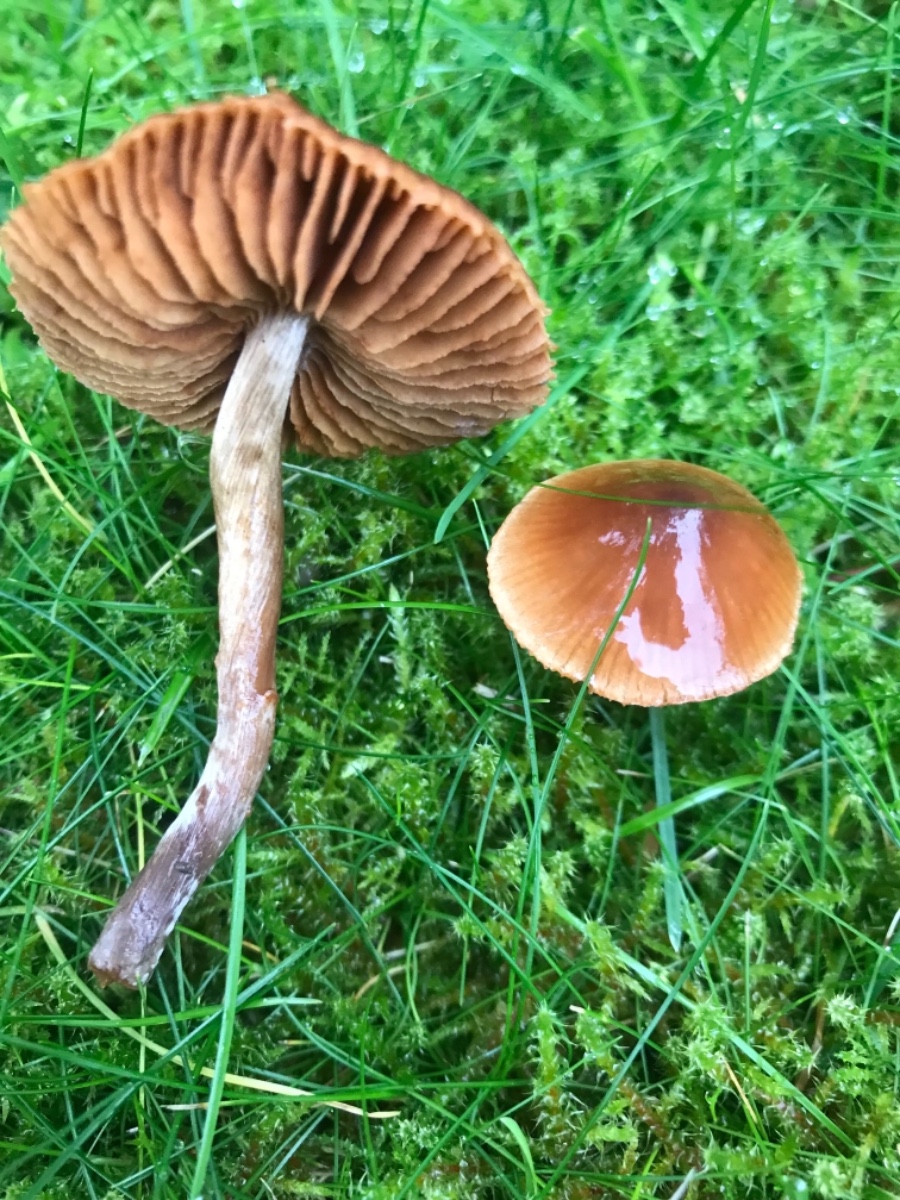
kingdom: Fungi
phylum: Basidiomycota
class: Agaricomycetes
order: Agaricales
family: Cortinariaceae
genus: Cortinarius
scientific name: Cortinarius
